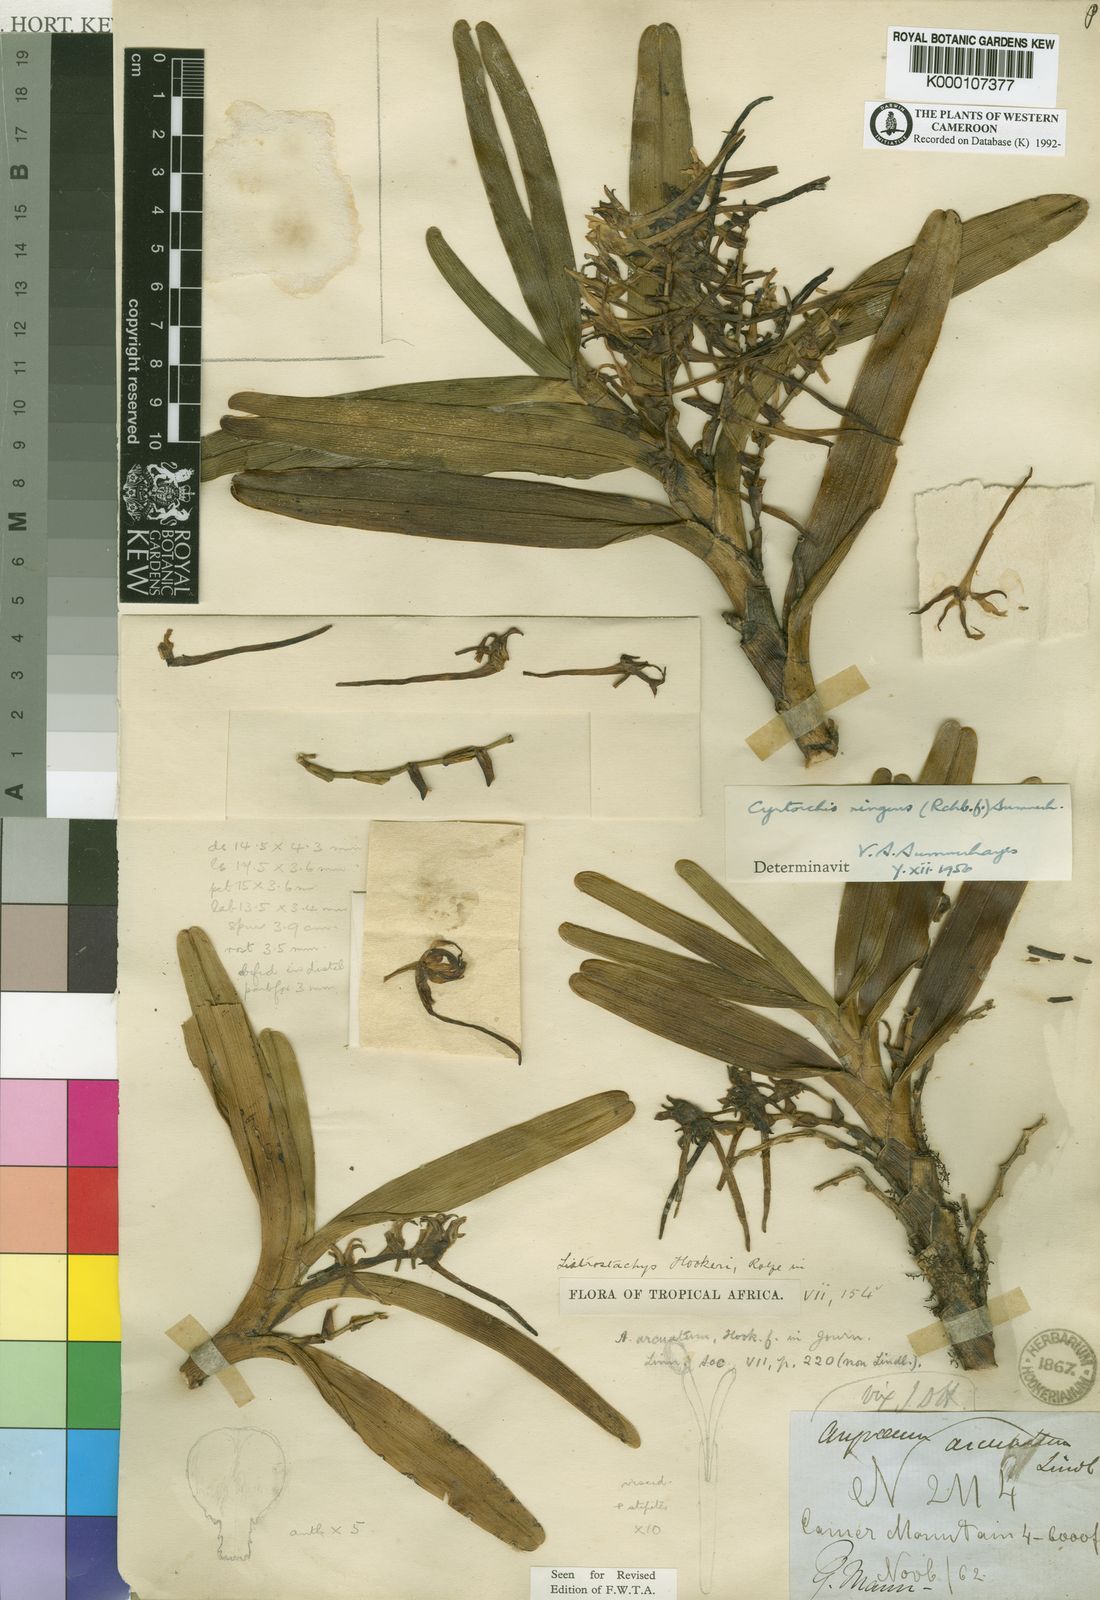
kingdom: Plantae
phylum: Tracheophyta
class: Liliopsida
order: Asparagales
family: Orchidaceae
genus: Cyrtorchis
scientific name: Cyrtorchis ringens
